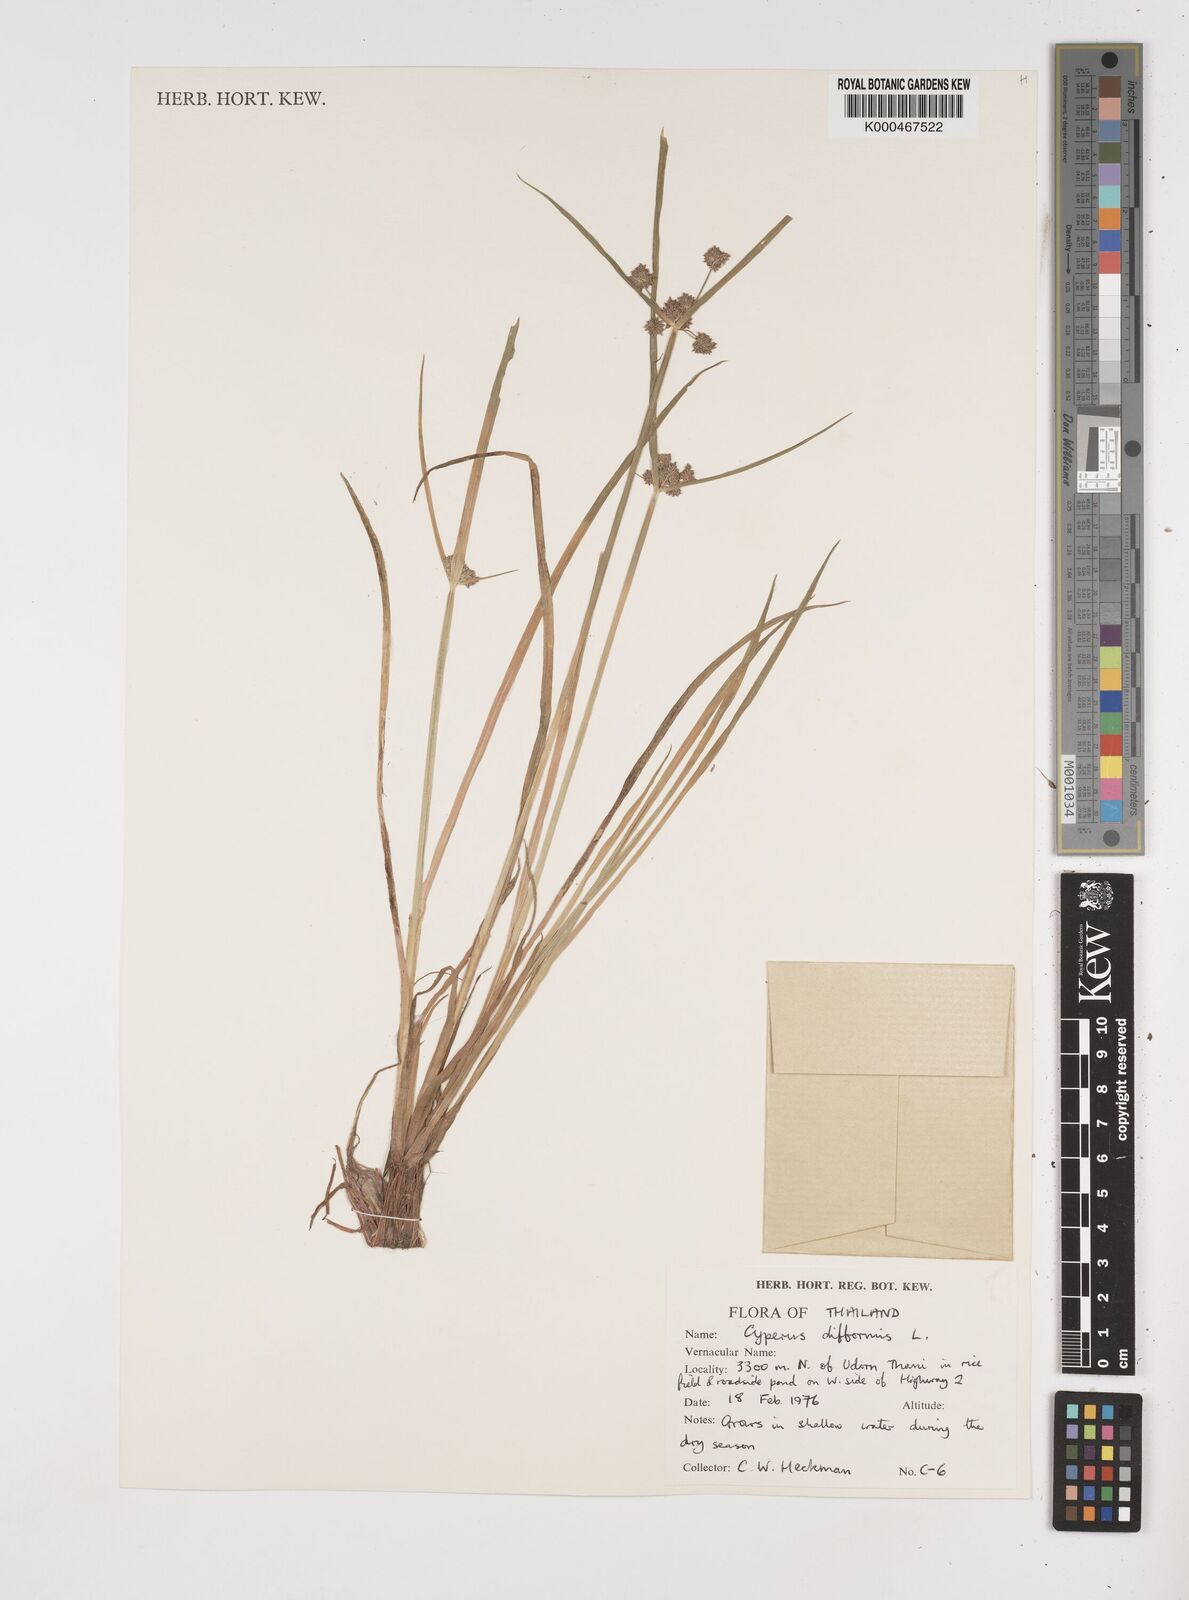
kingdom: Plantae
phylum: Tracheophyta
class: Liliopsida
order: Poales
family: Cyperaceae
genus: Cyperus
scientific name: Cyperus difformis
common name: Variable flatsedge
